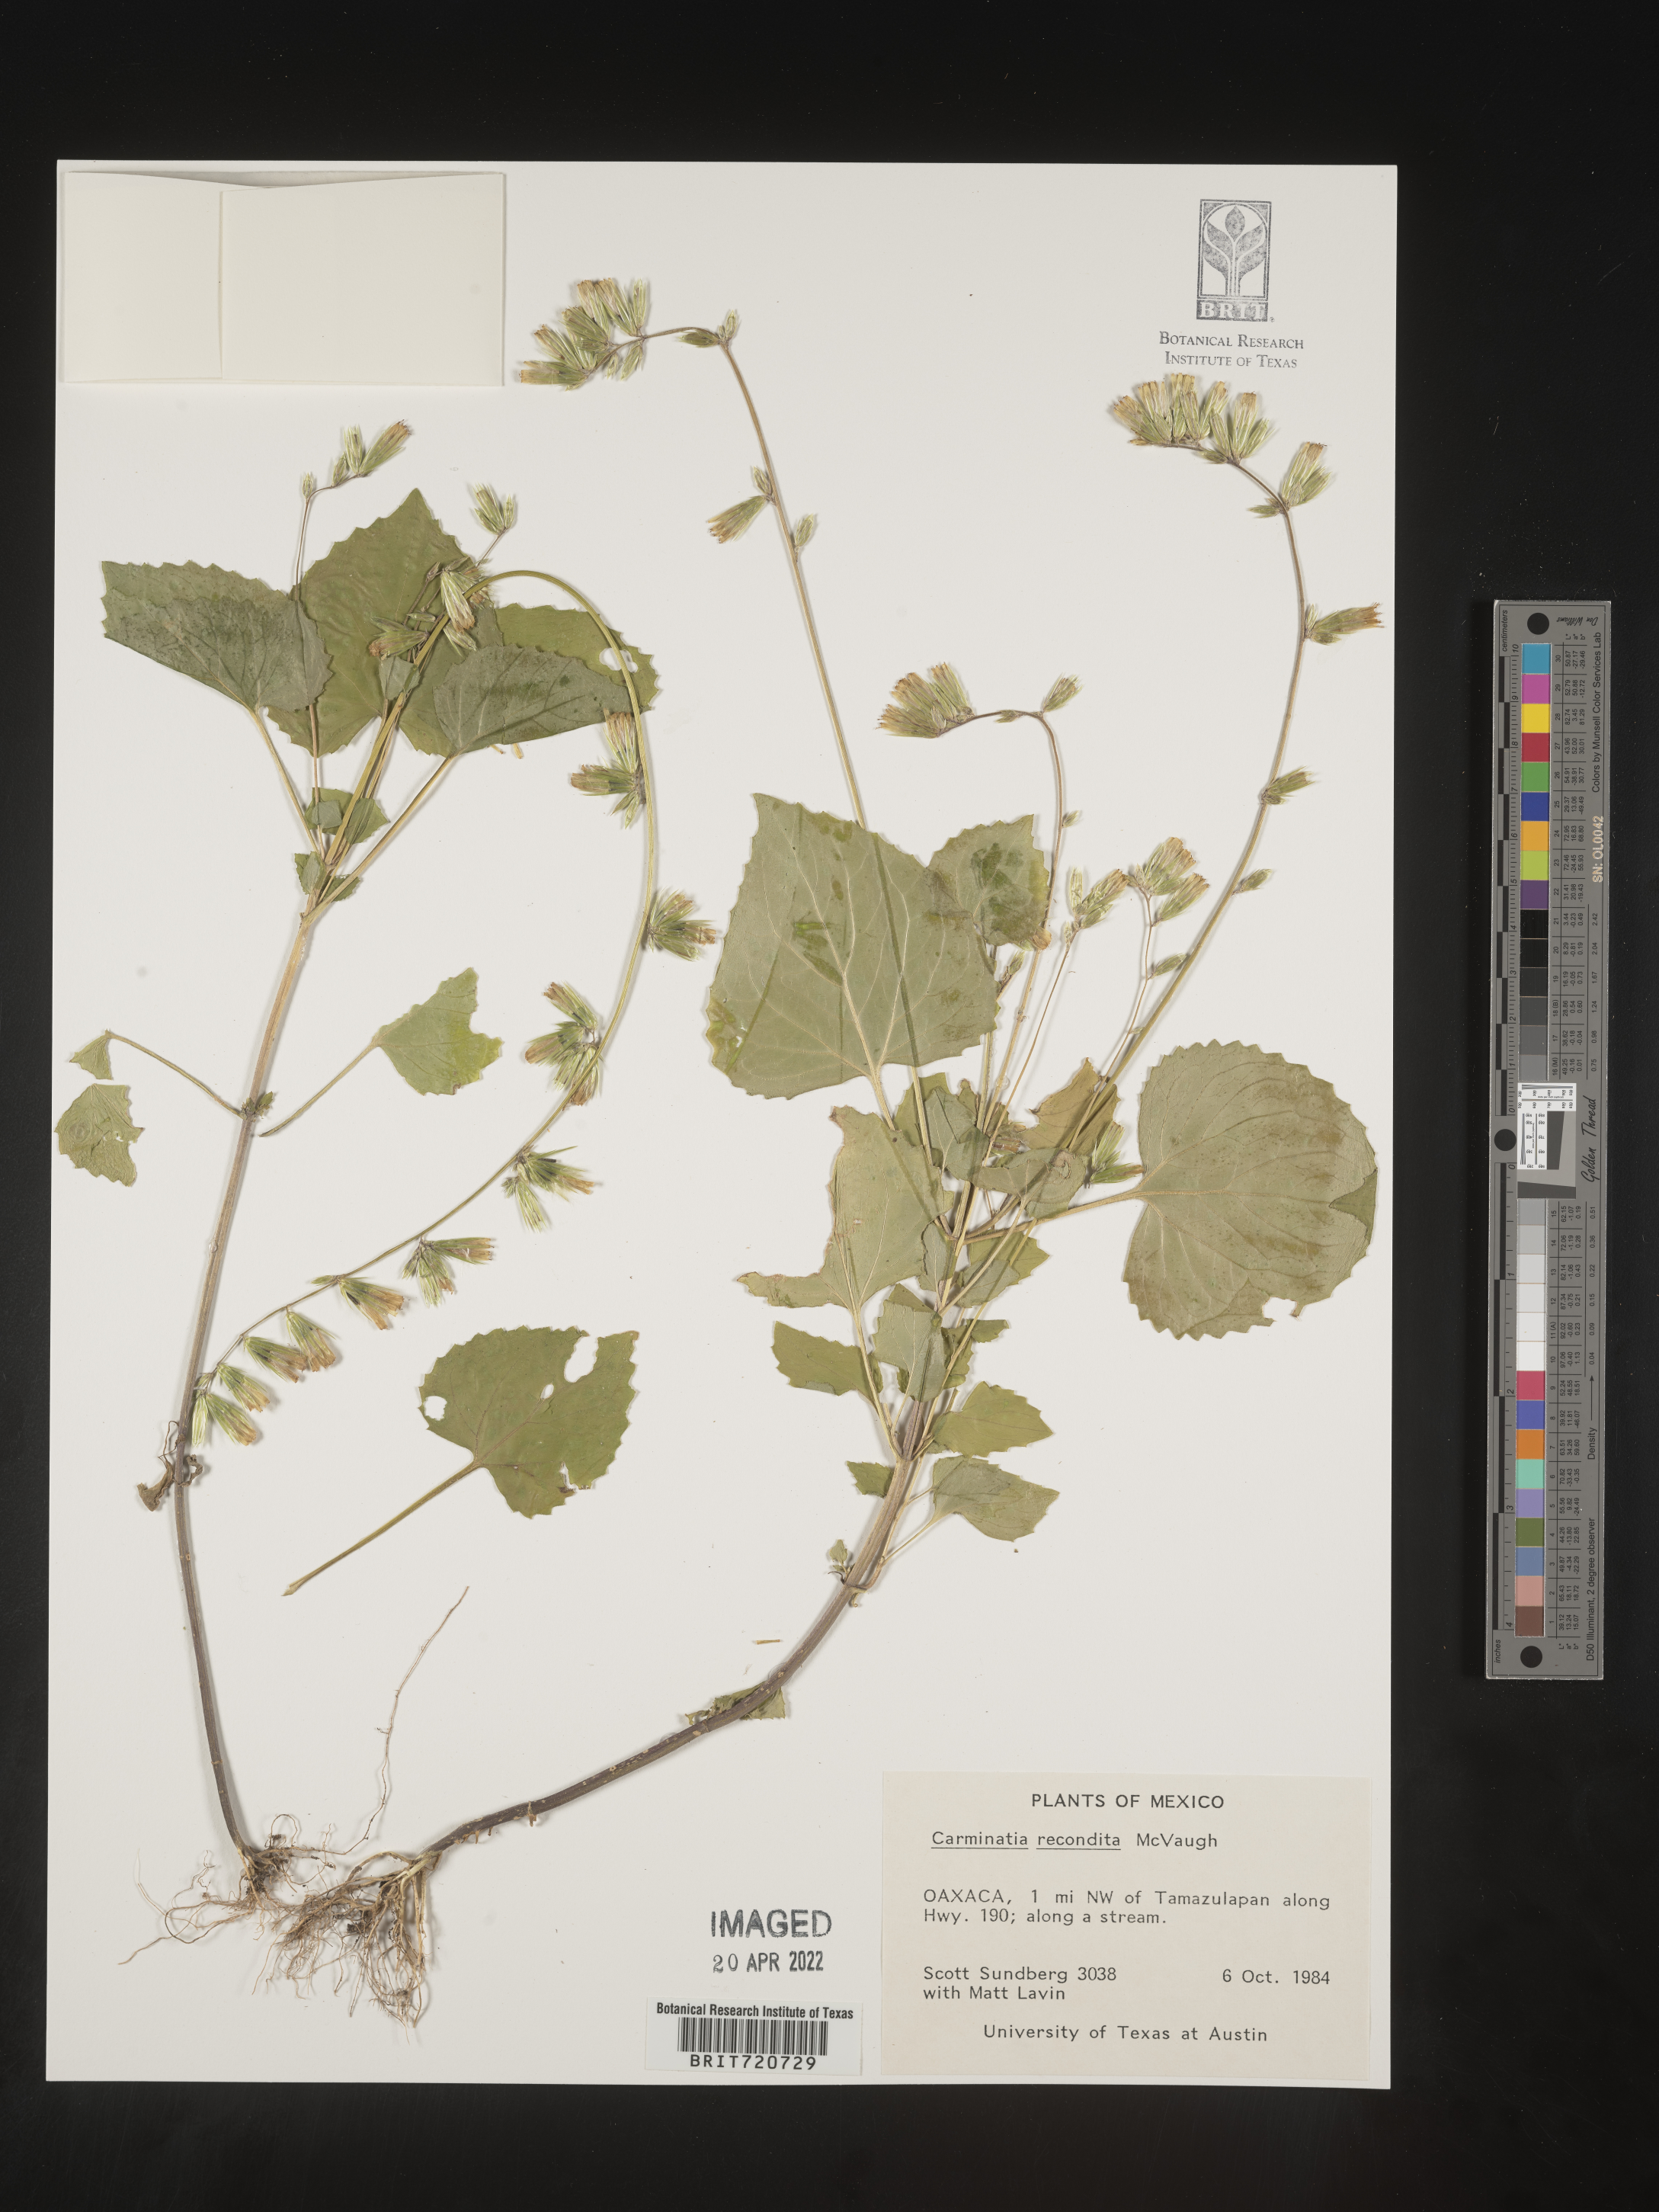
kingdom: Plantae
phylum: Tracheophyta
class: Magnoliopsida
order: Asterales
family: Asteraceae
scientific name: Asteraceae
